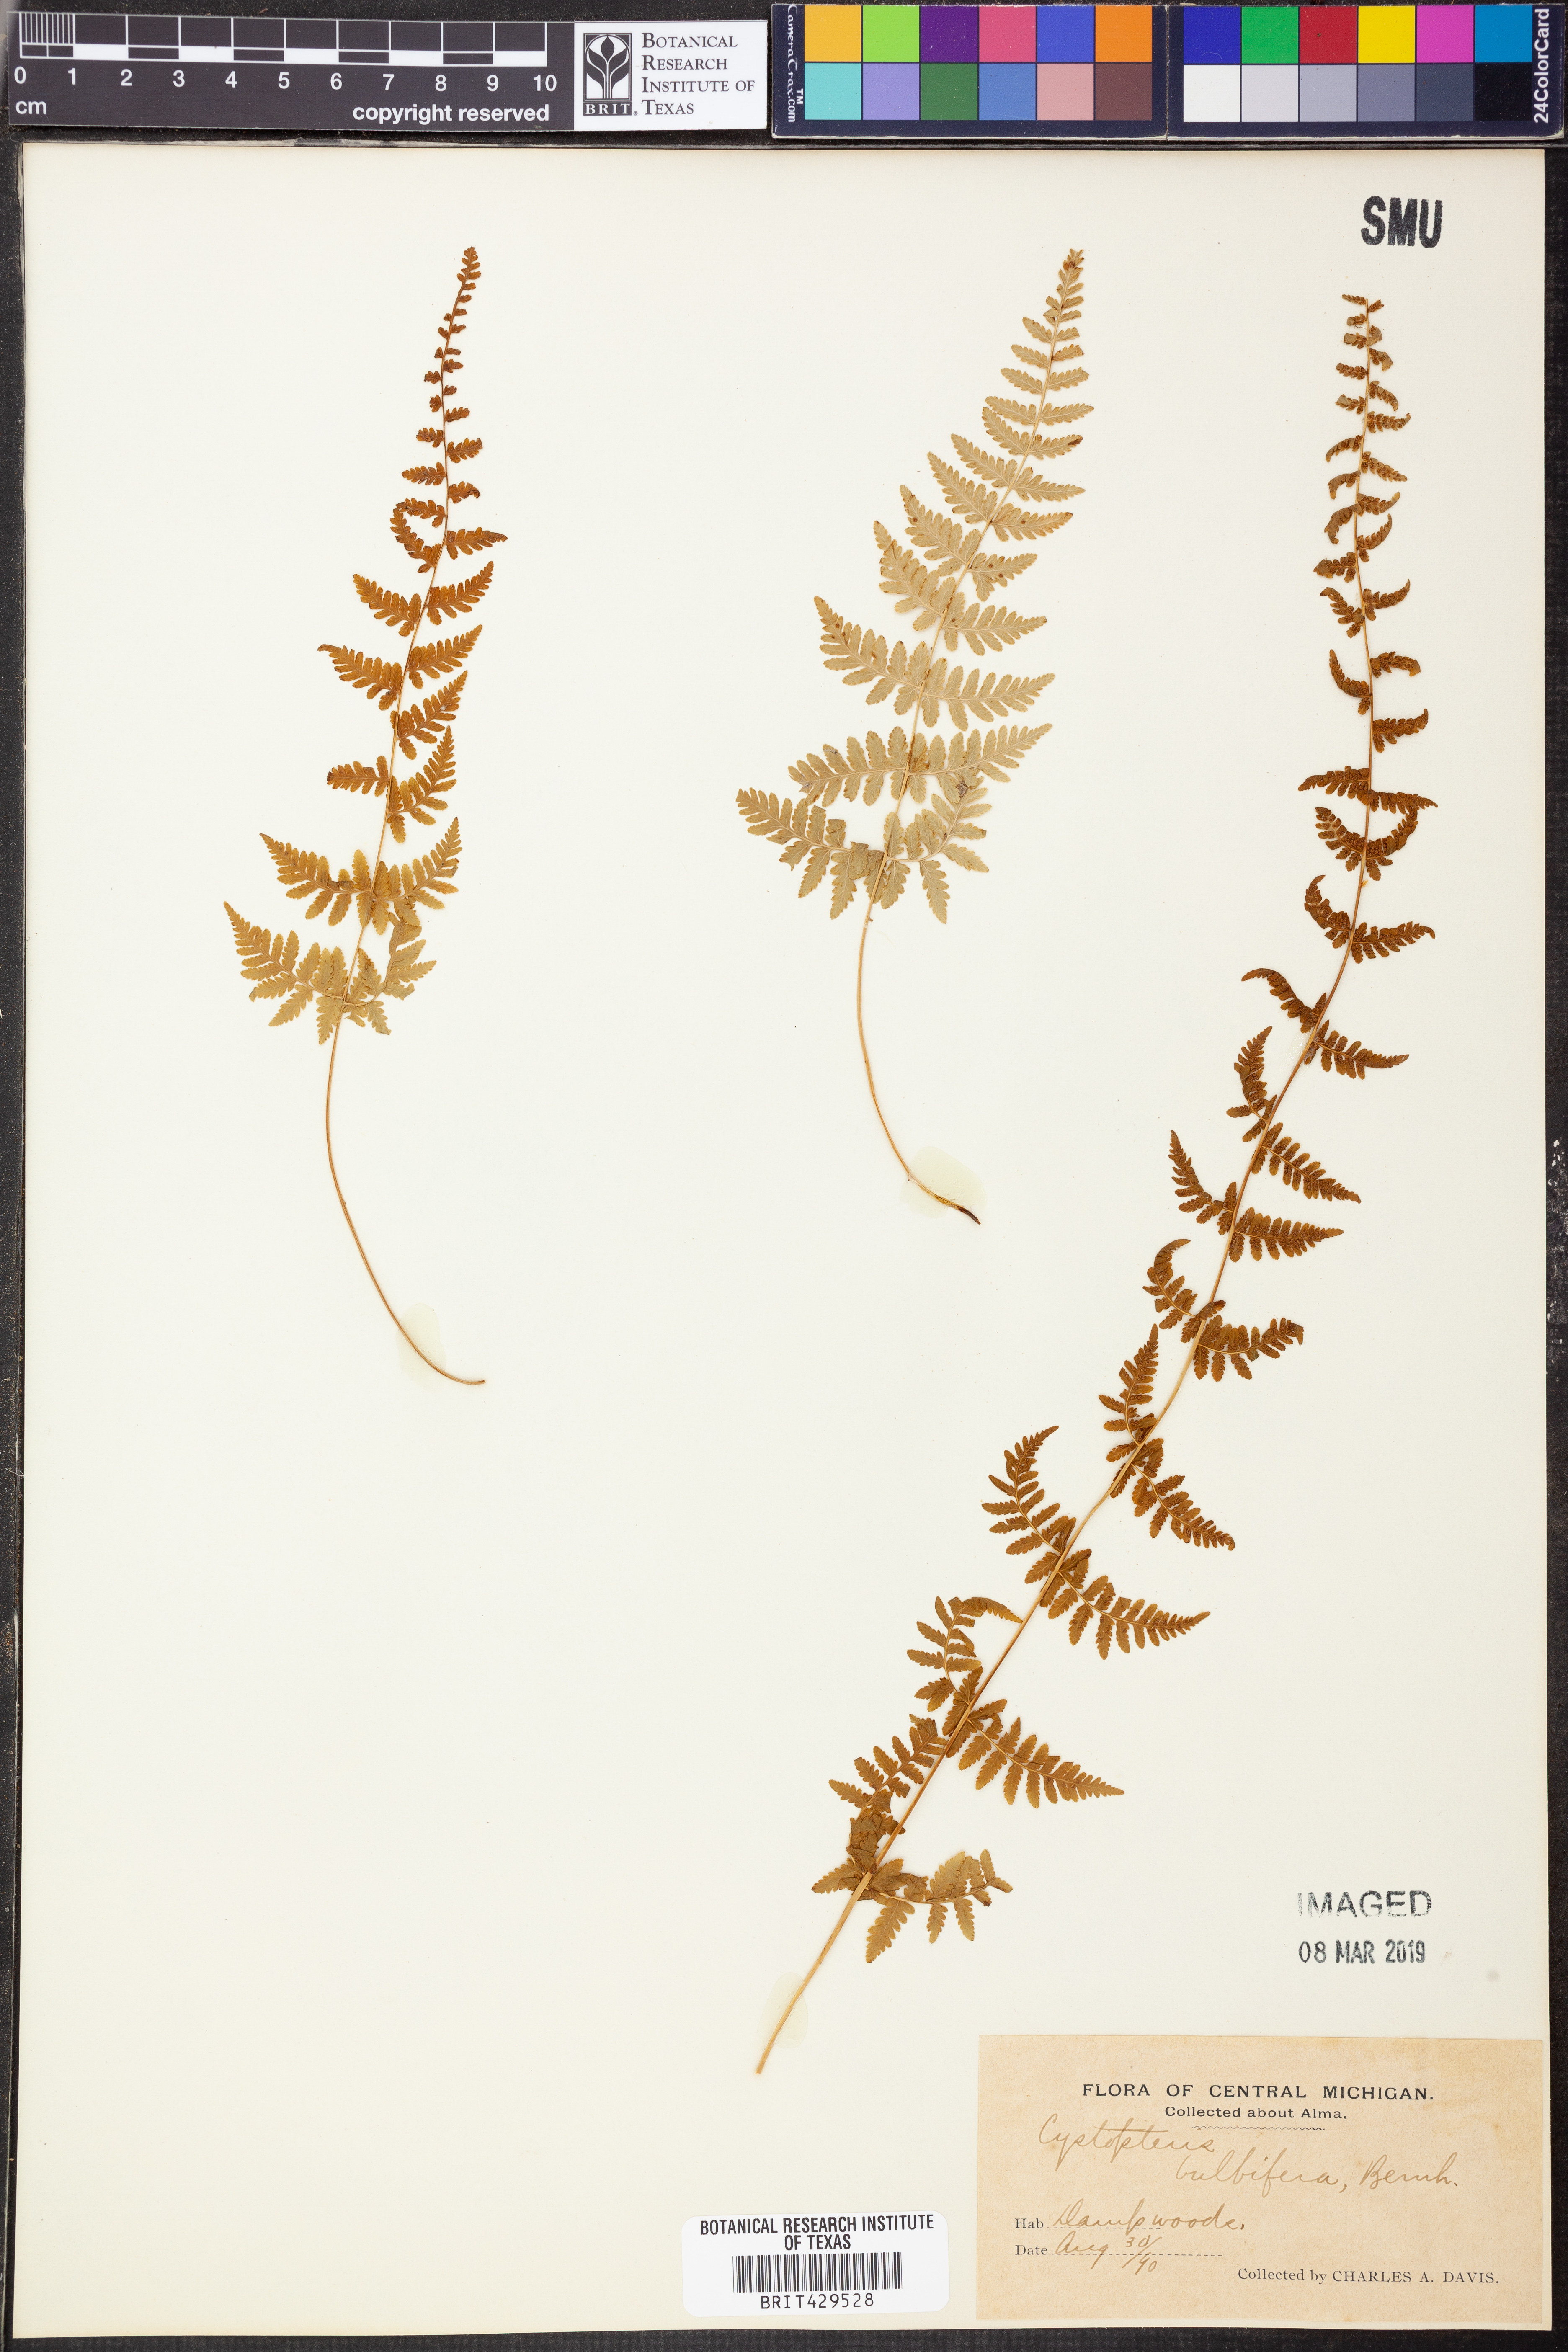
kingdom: Plantae
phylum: Tracheophyta
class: Polypodiopsida
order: Polypodiales
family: Cystopteridaceae
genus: Cystopteris
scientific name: Cystopteris bulbifera
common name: Bulblet bladder fern
